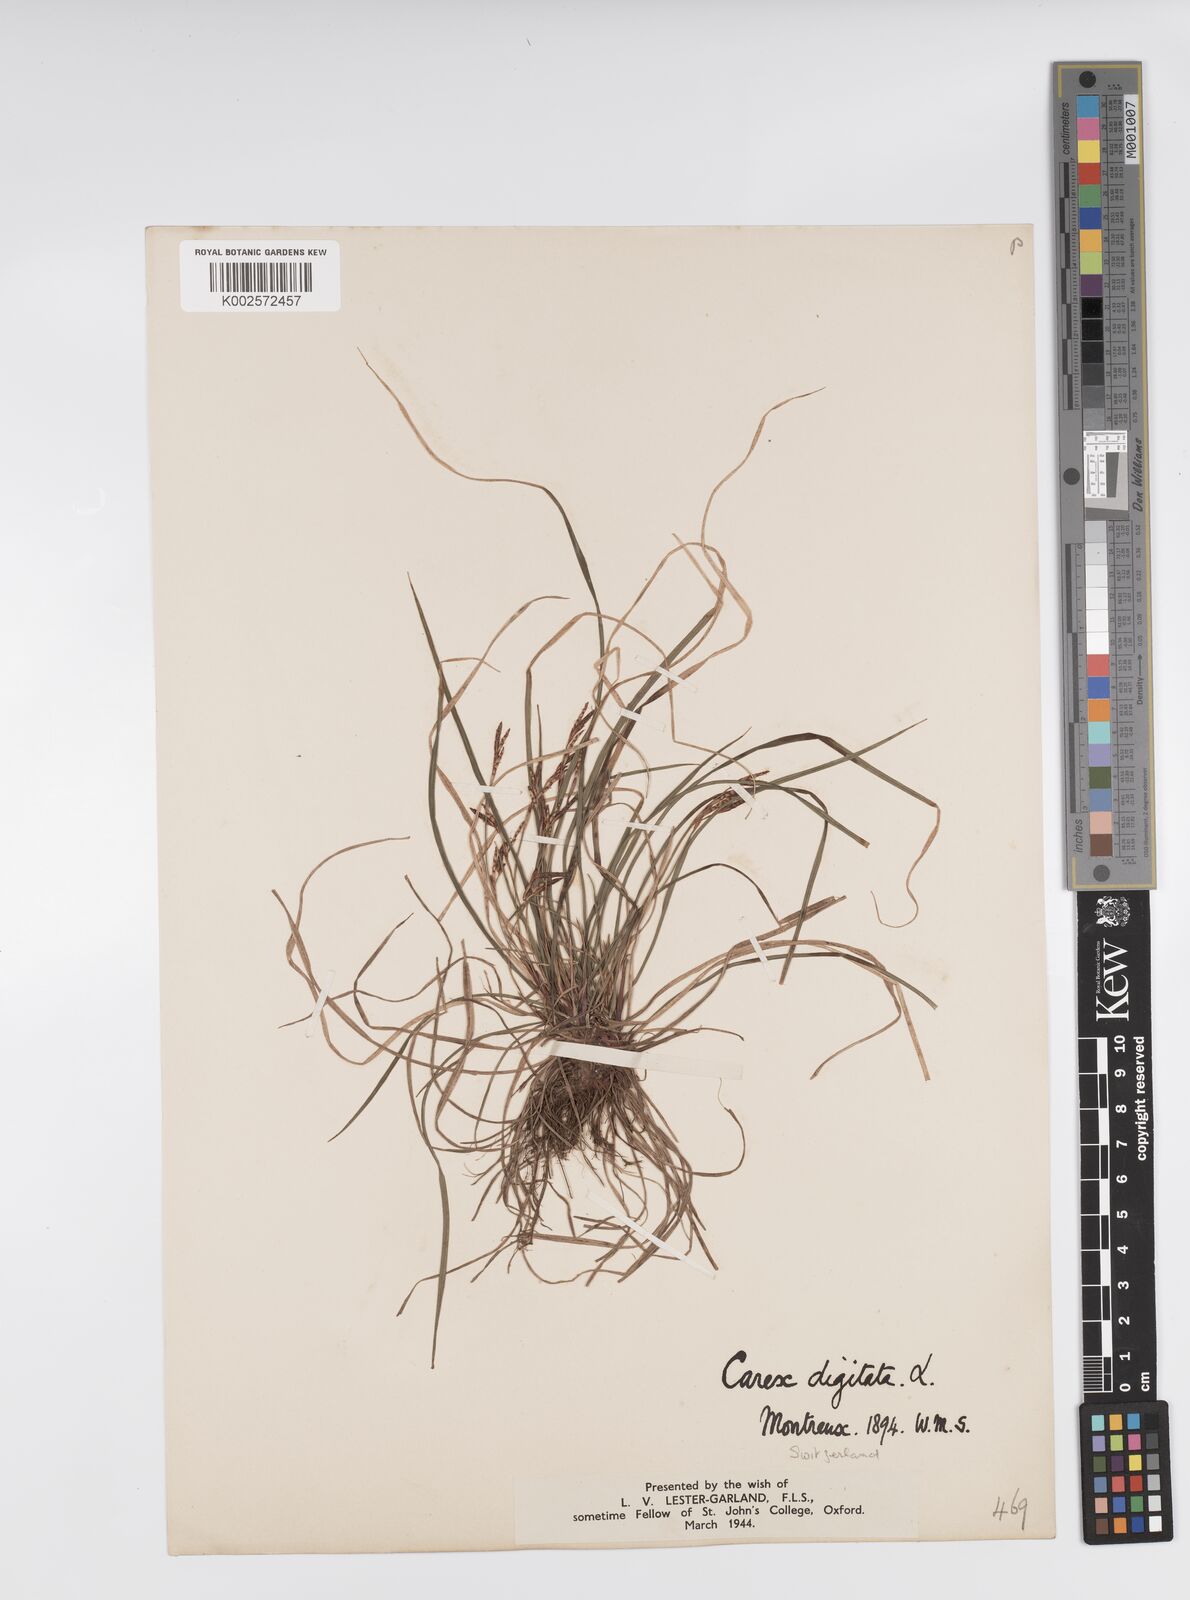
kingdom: Plantae
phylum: Tracheophyta
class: Liliopsida
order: Poales
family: Cyperaceae
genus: Carex
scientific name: Carex digitata
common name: Fingered sedge
